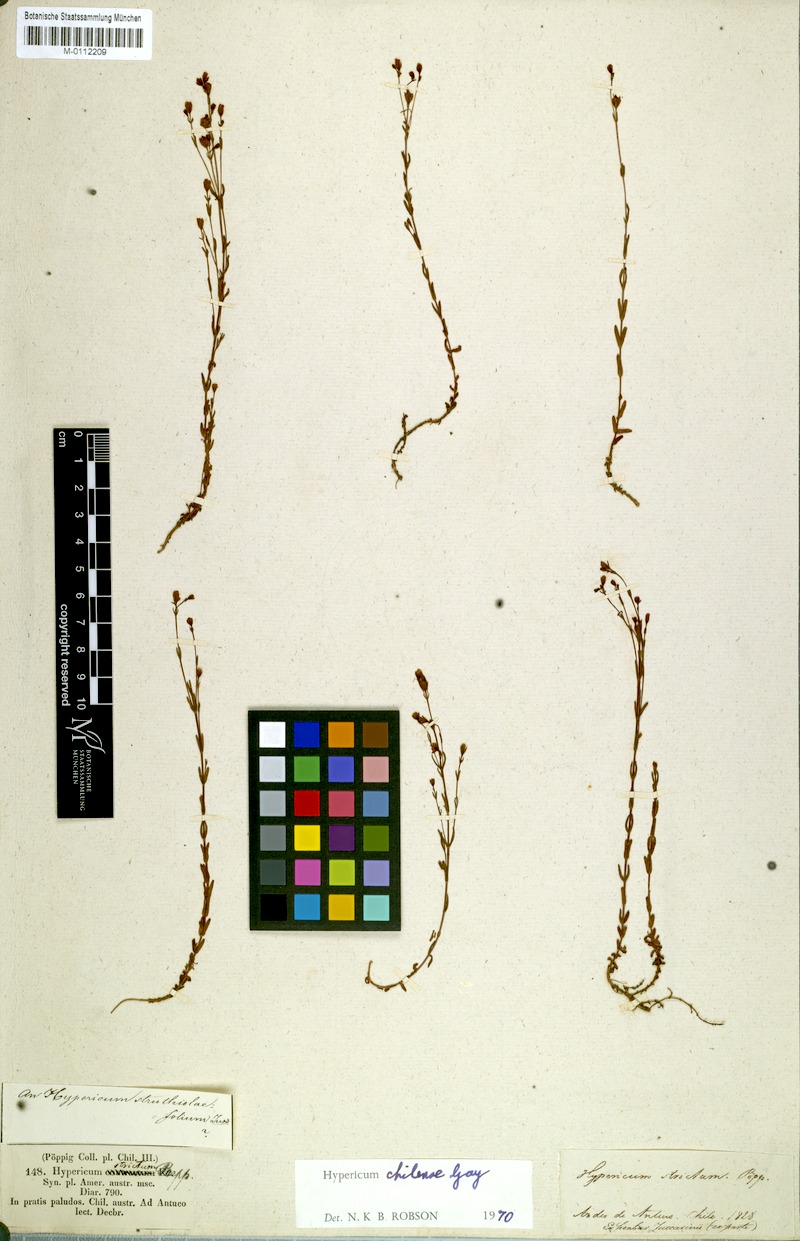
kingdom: Plantae
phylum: Tracheophyta
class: Magnoliopsida
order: Malpighiales
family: Hypericaceae
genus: Hypericum
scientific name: Hypericum caespitosum
